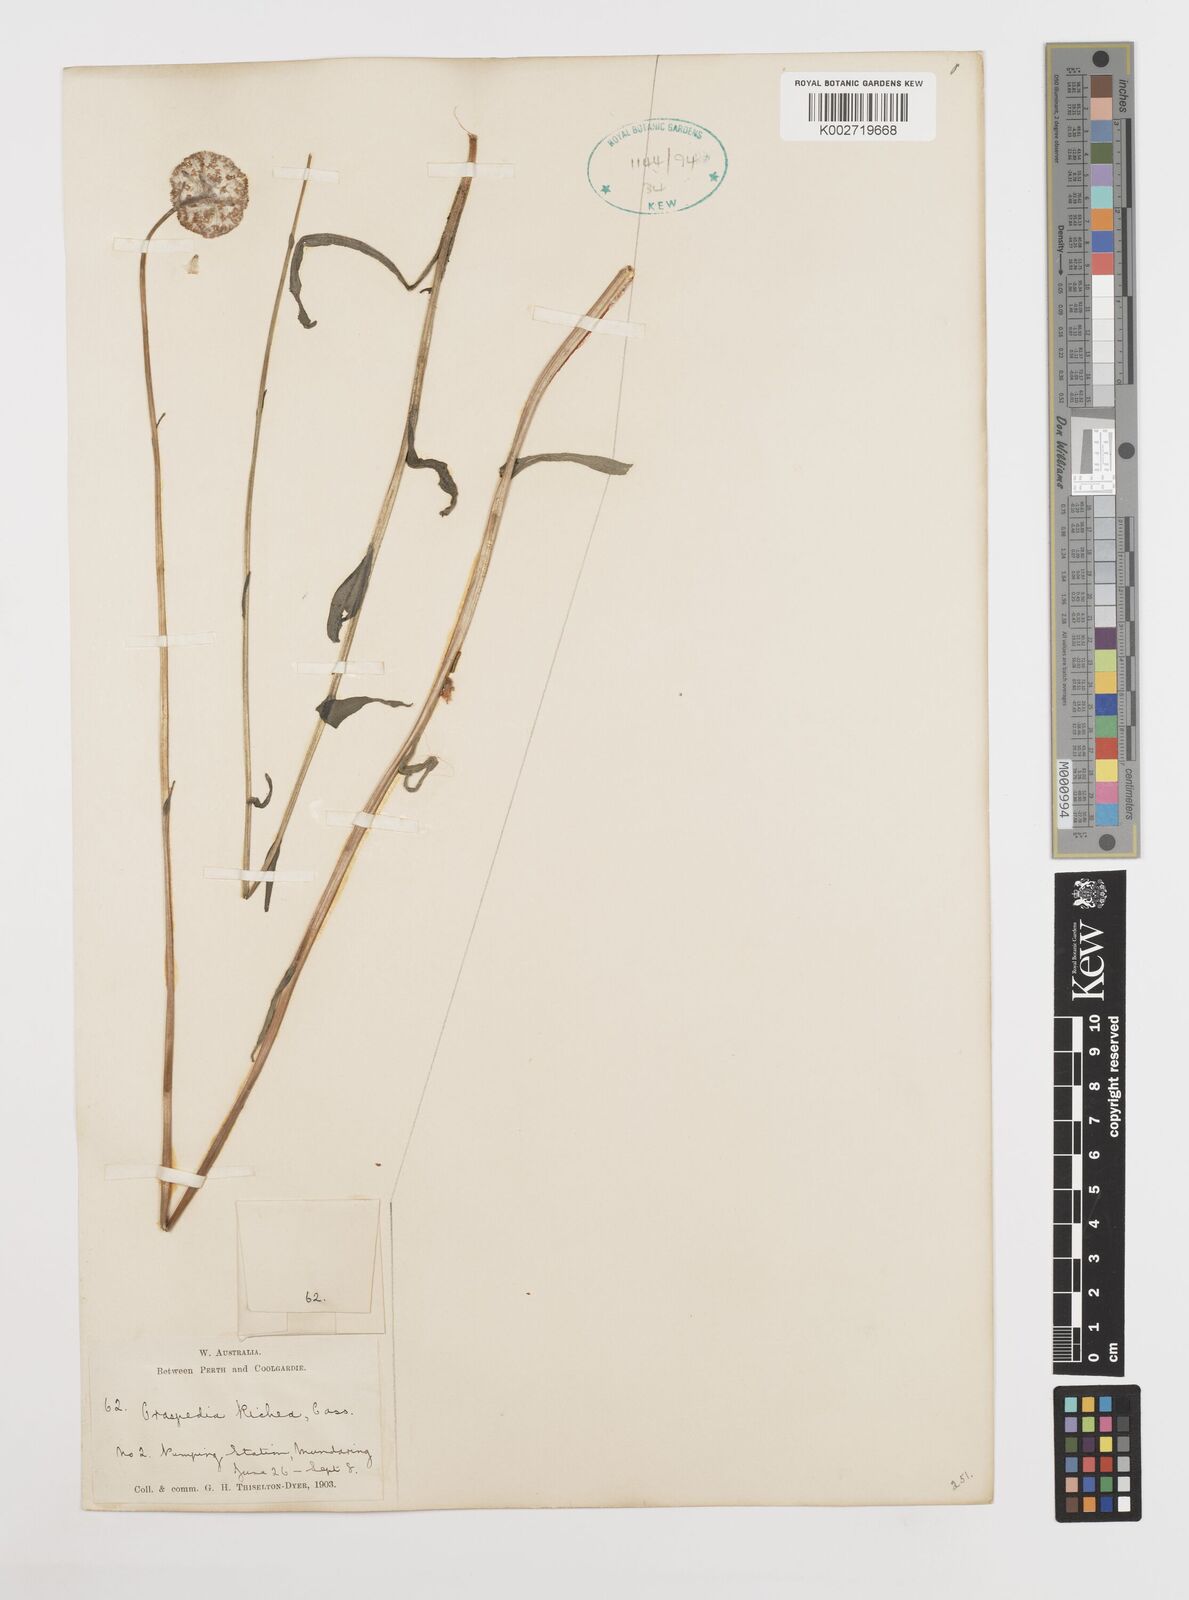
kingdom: Plantae
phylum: Tracheophyta
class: Magnoliopsida
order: Asterales
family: Asteraceae
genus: Craspedia
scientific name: Craspedia glauca
